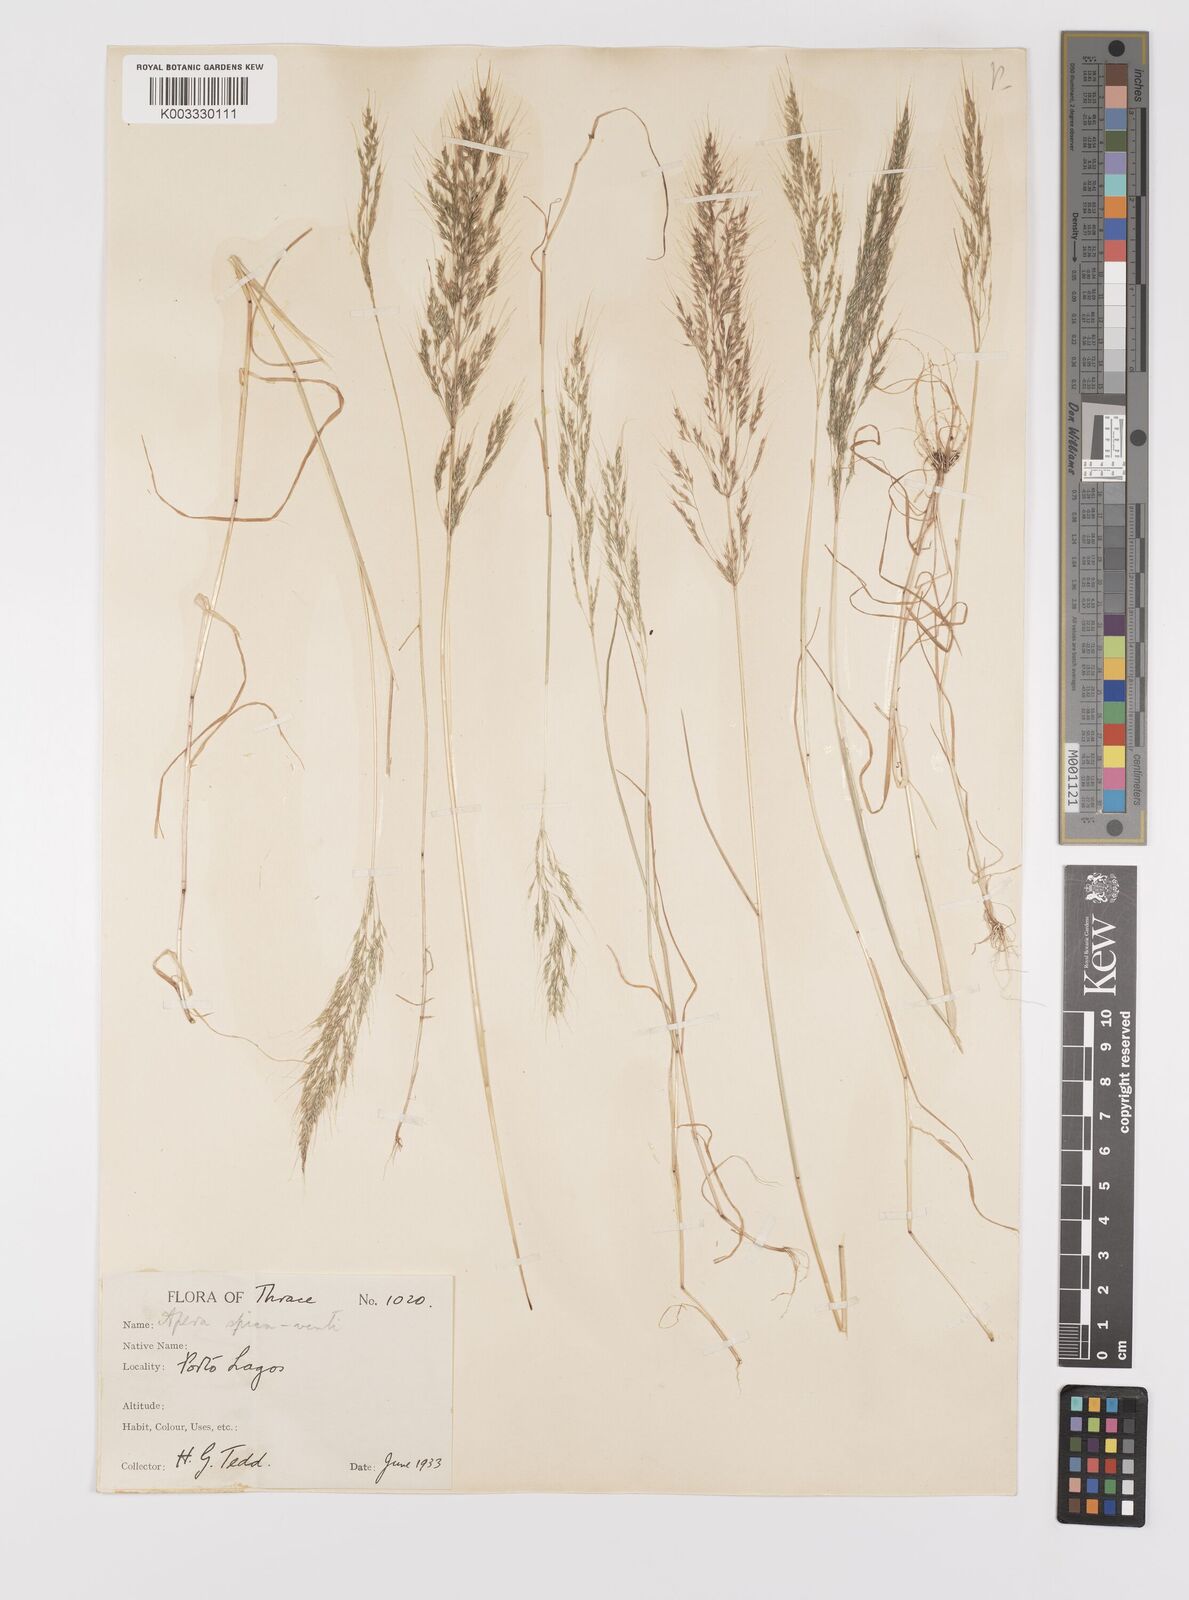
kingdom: Plantae
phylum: Tracheophyta
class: Liliopsida
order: Poales
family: Poaceae
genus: Apera
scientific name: Apera spica-venti
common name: Loose silky-bent
